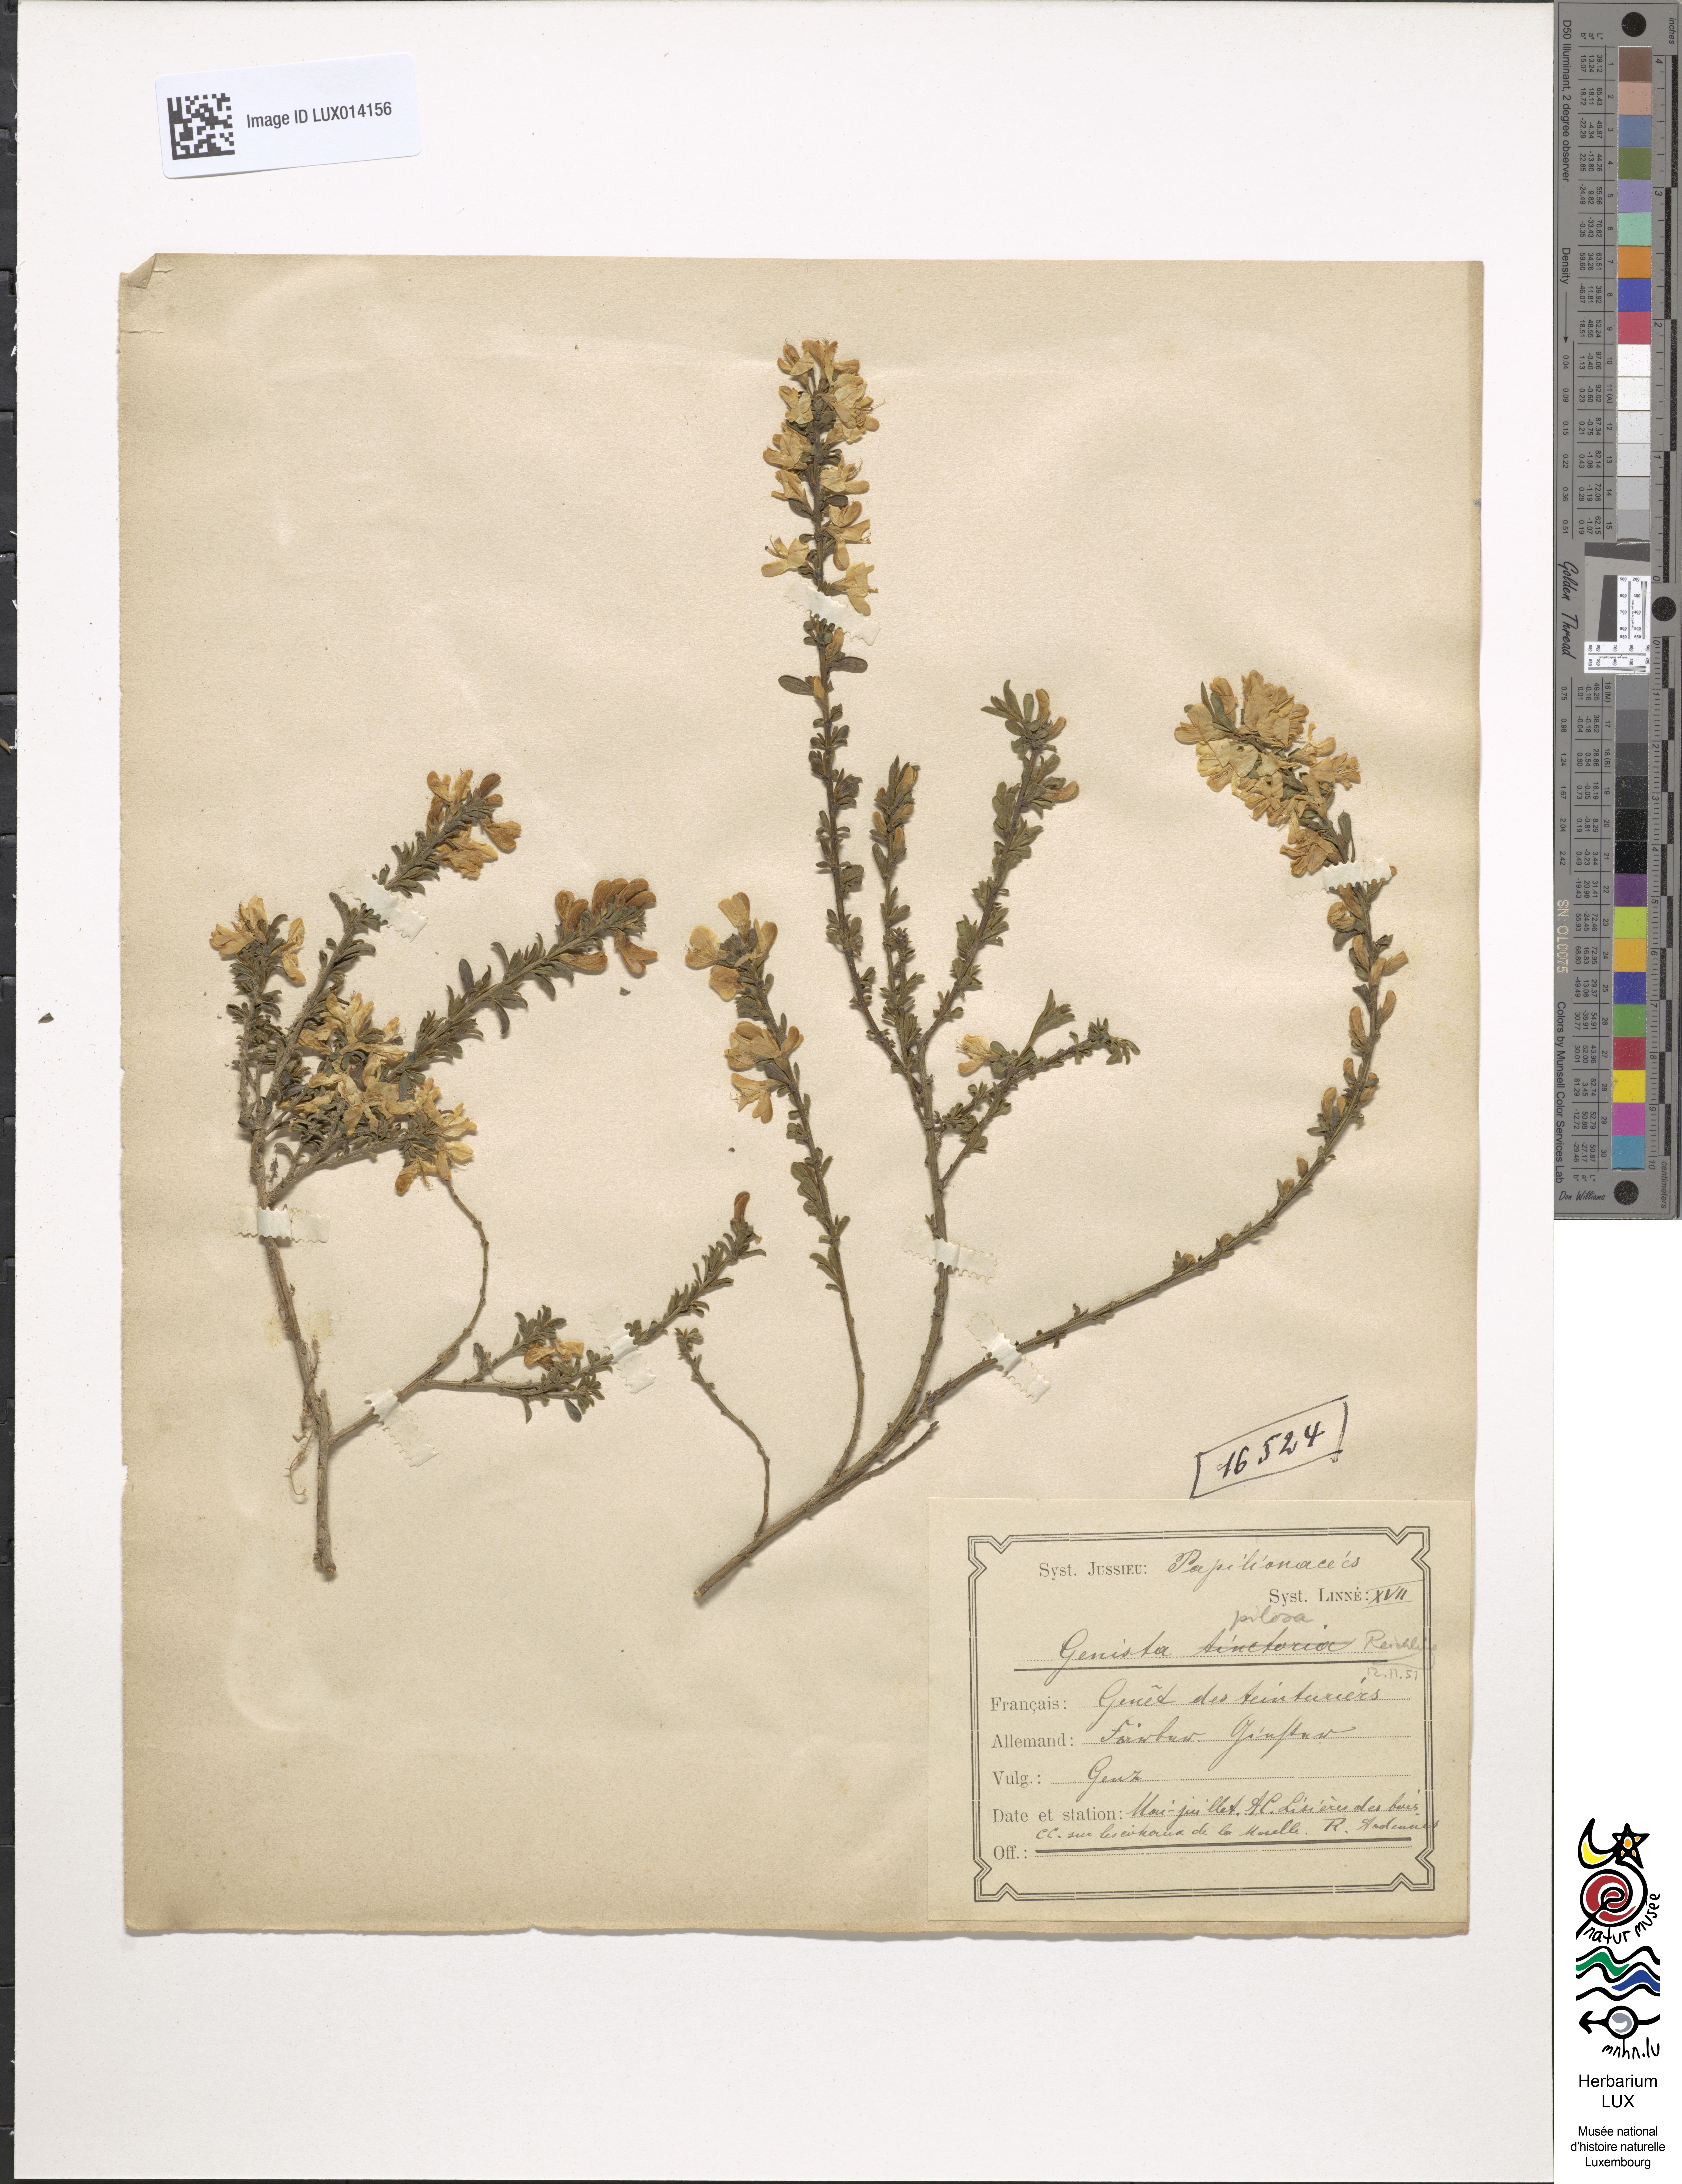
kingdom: Plantae
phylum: Tracheophyta
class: Magnoliopsida
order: Fabales
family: Fabaceae
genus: Genista
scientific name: Genista pilosa
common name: Hairy greenweed
